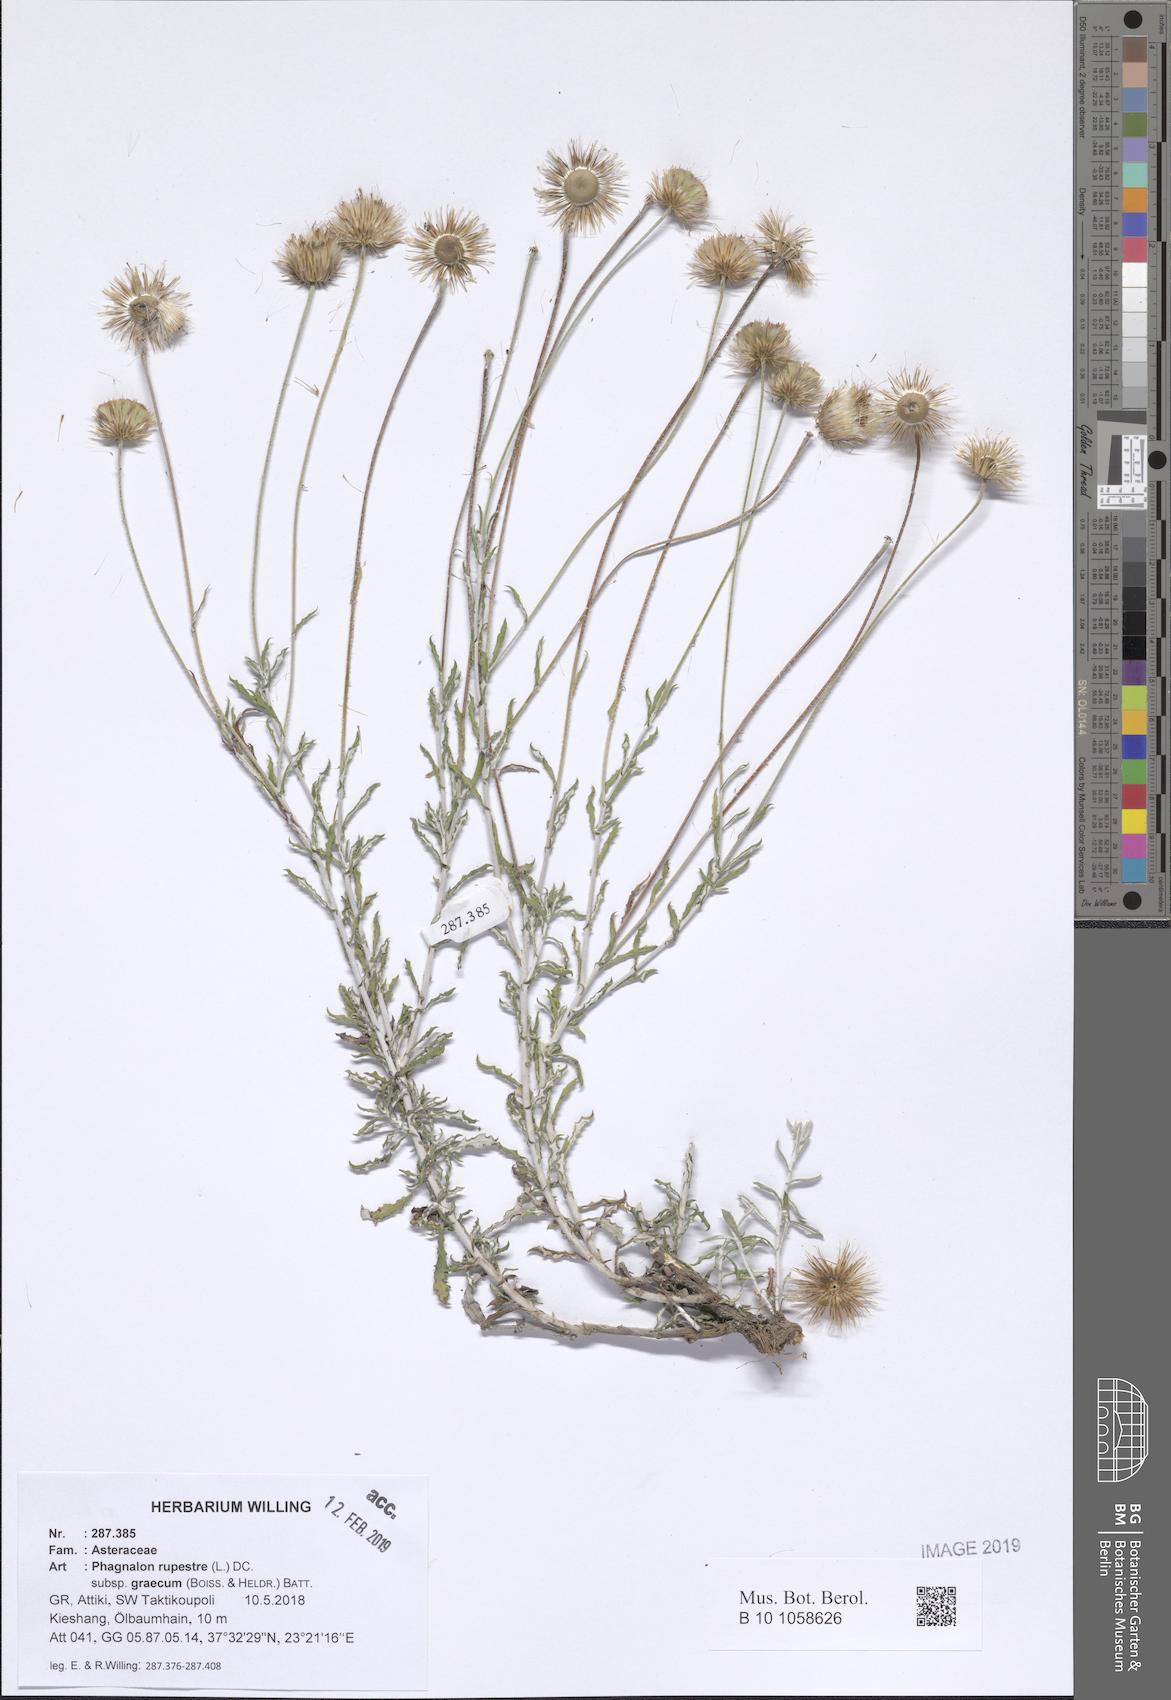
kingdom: Plantae
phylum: Tracheophyta
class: Magnoliopsida
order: Asterales
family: Asteraceae
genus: Phagnalon
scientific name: Phagnalon graecum
